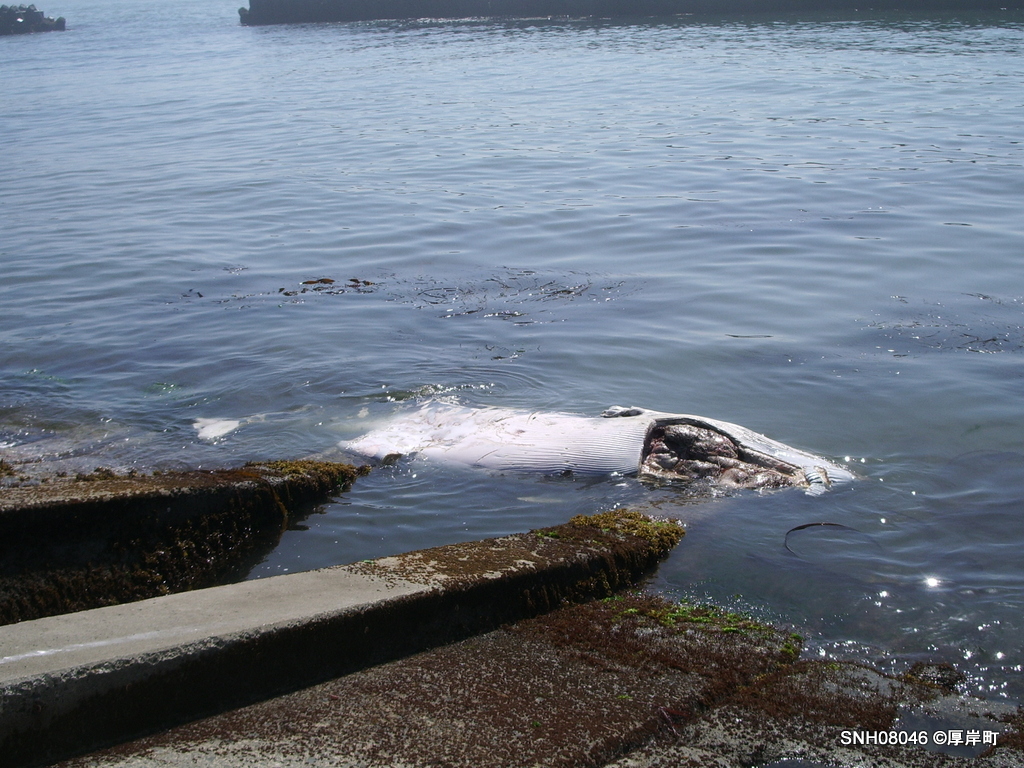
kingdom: Animalia
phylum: Chordata
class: Mammalia
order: Cetacea
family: Balaenopteridae
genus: Balaenoptera
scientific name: Balaenoptera acutorostrata
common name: Minke whale
